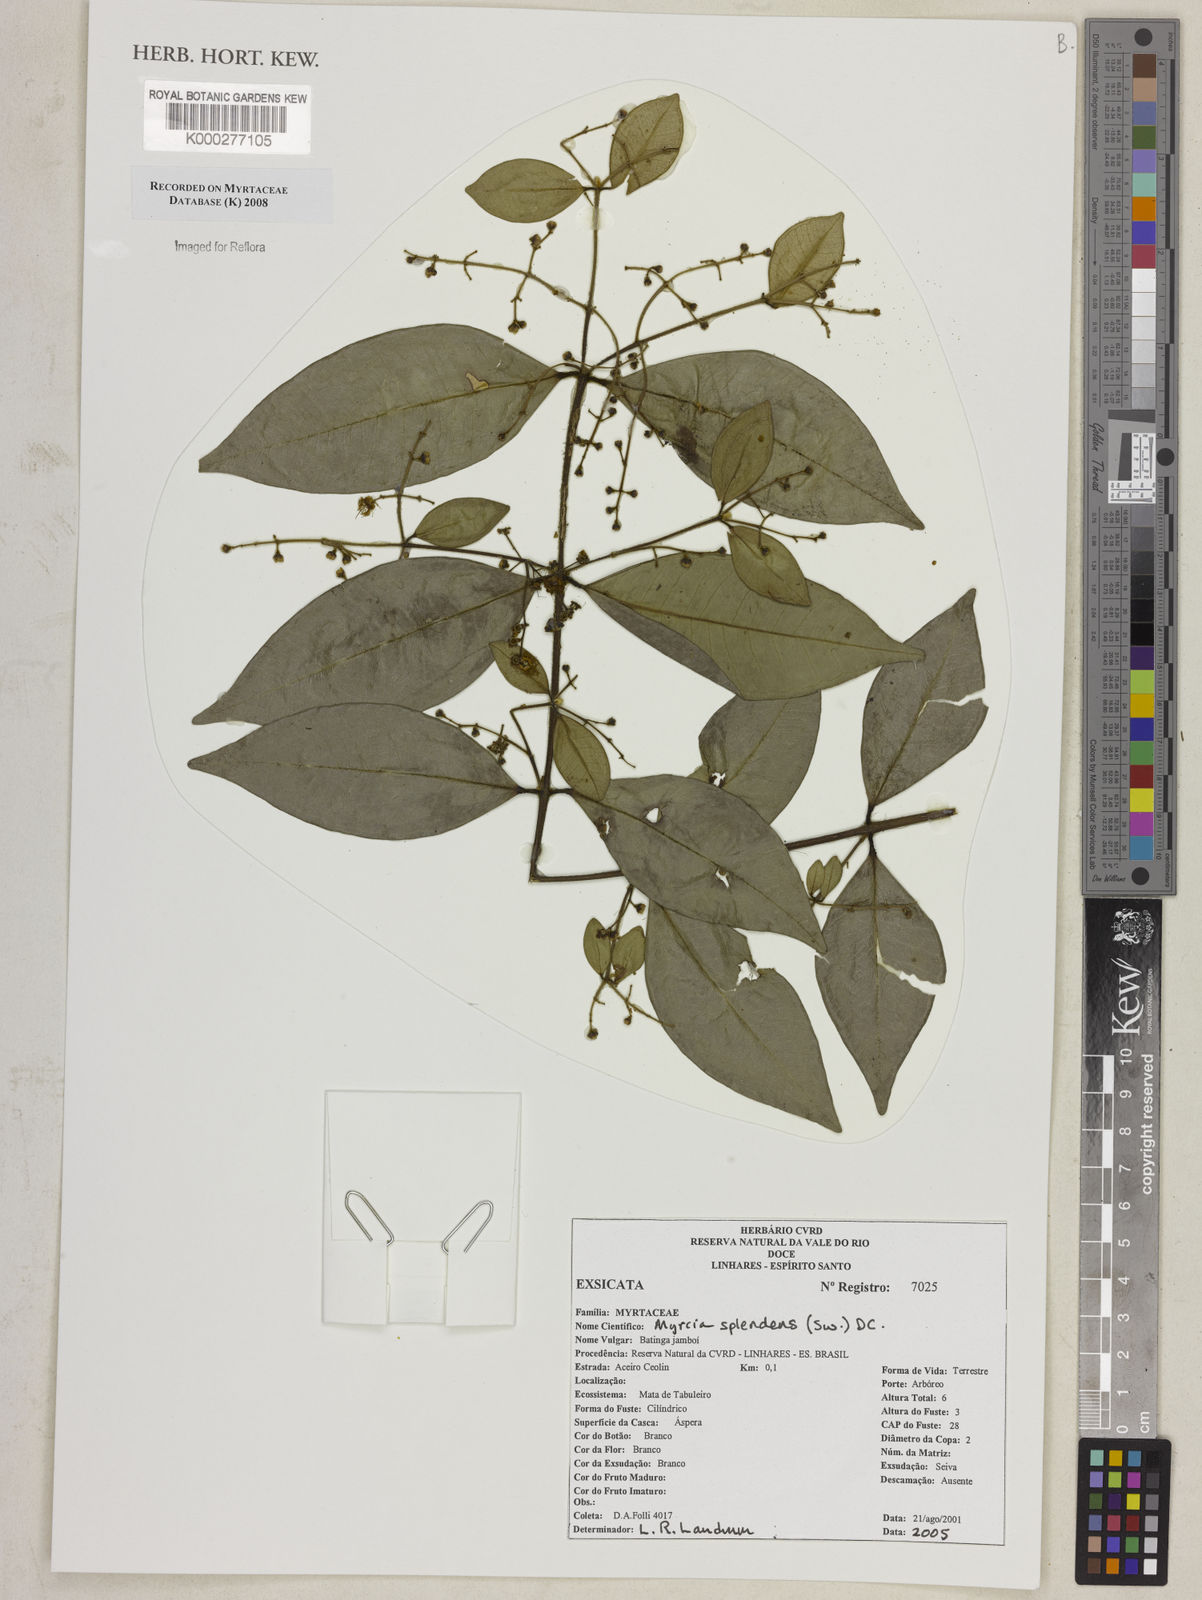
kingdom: Plantae
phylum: Tracheophyta
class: Magnoliopsida
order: Myrtales
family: Myrtaceae
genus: Myrcia
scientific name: Myrcia splendens
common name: Surinam cherry
